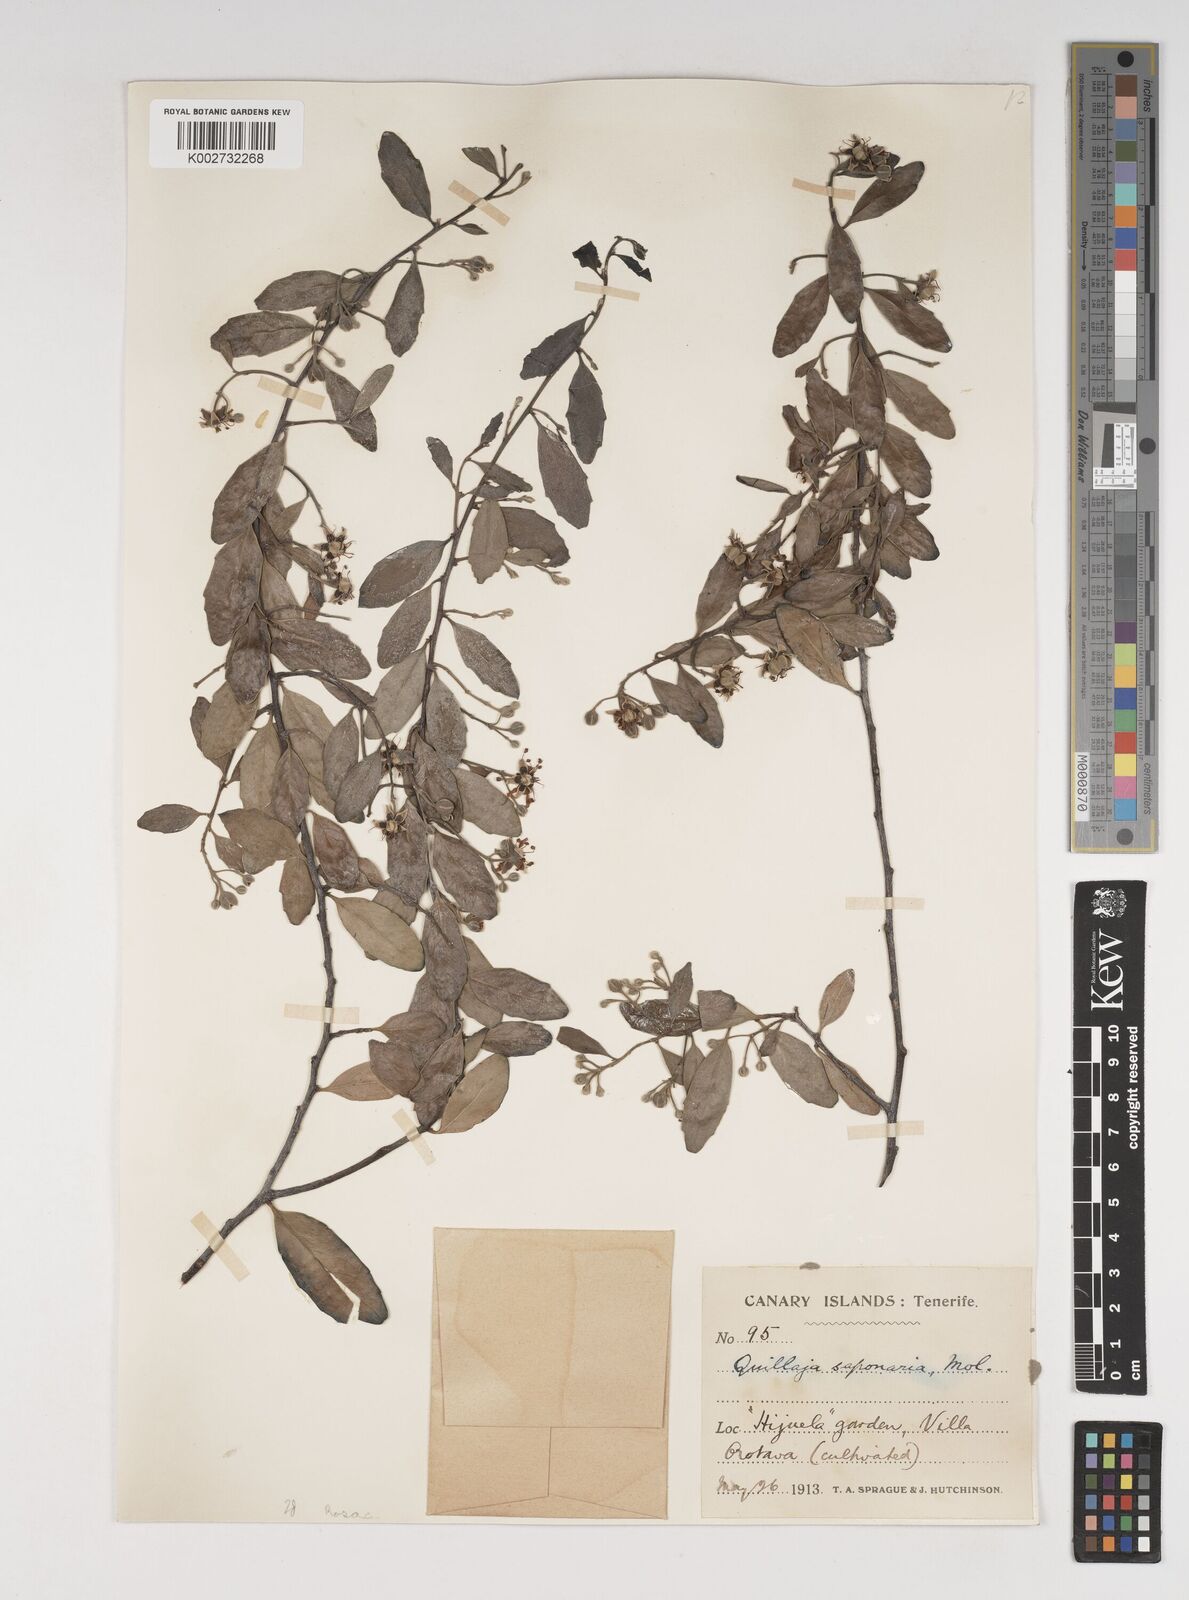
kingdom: Plantae
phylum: Tracheophyta
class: Magnoliopsida
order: Fabales
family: Quillajaceae
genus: Quillaja
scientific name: Quillaja saponaria
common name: Murillo's-bark
